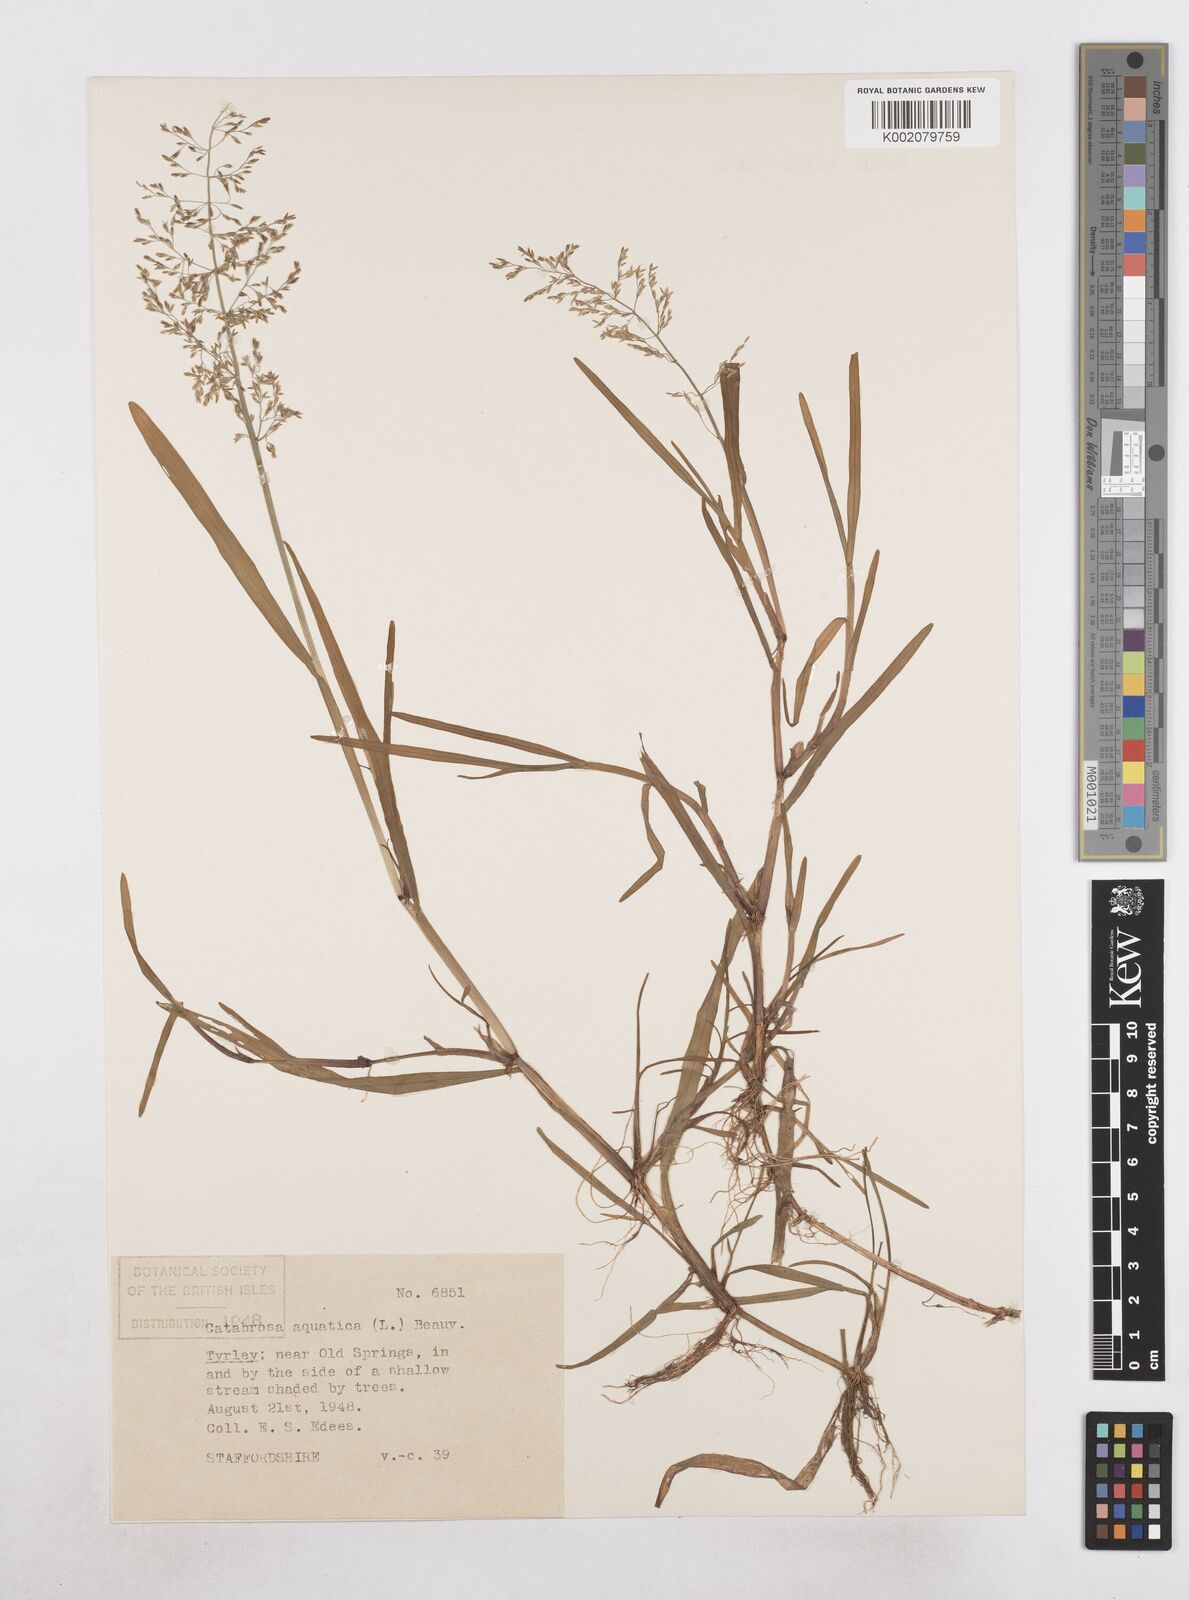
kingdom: Plantae
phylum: Tracheophyta
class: Liliopsida
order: Poales
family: Poaceae
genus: Catabrosa
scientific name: Catabrosa aquatica
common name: Whorl-grass
